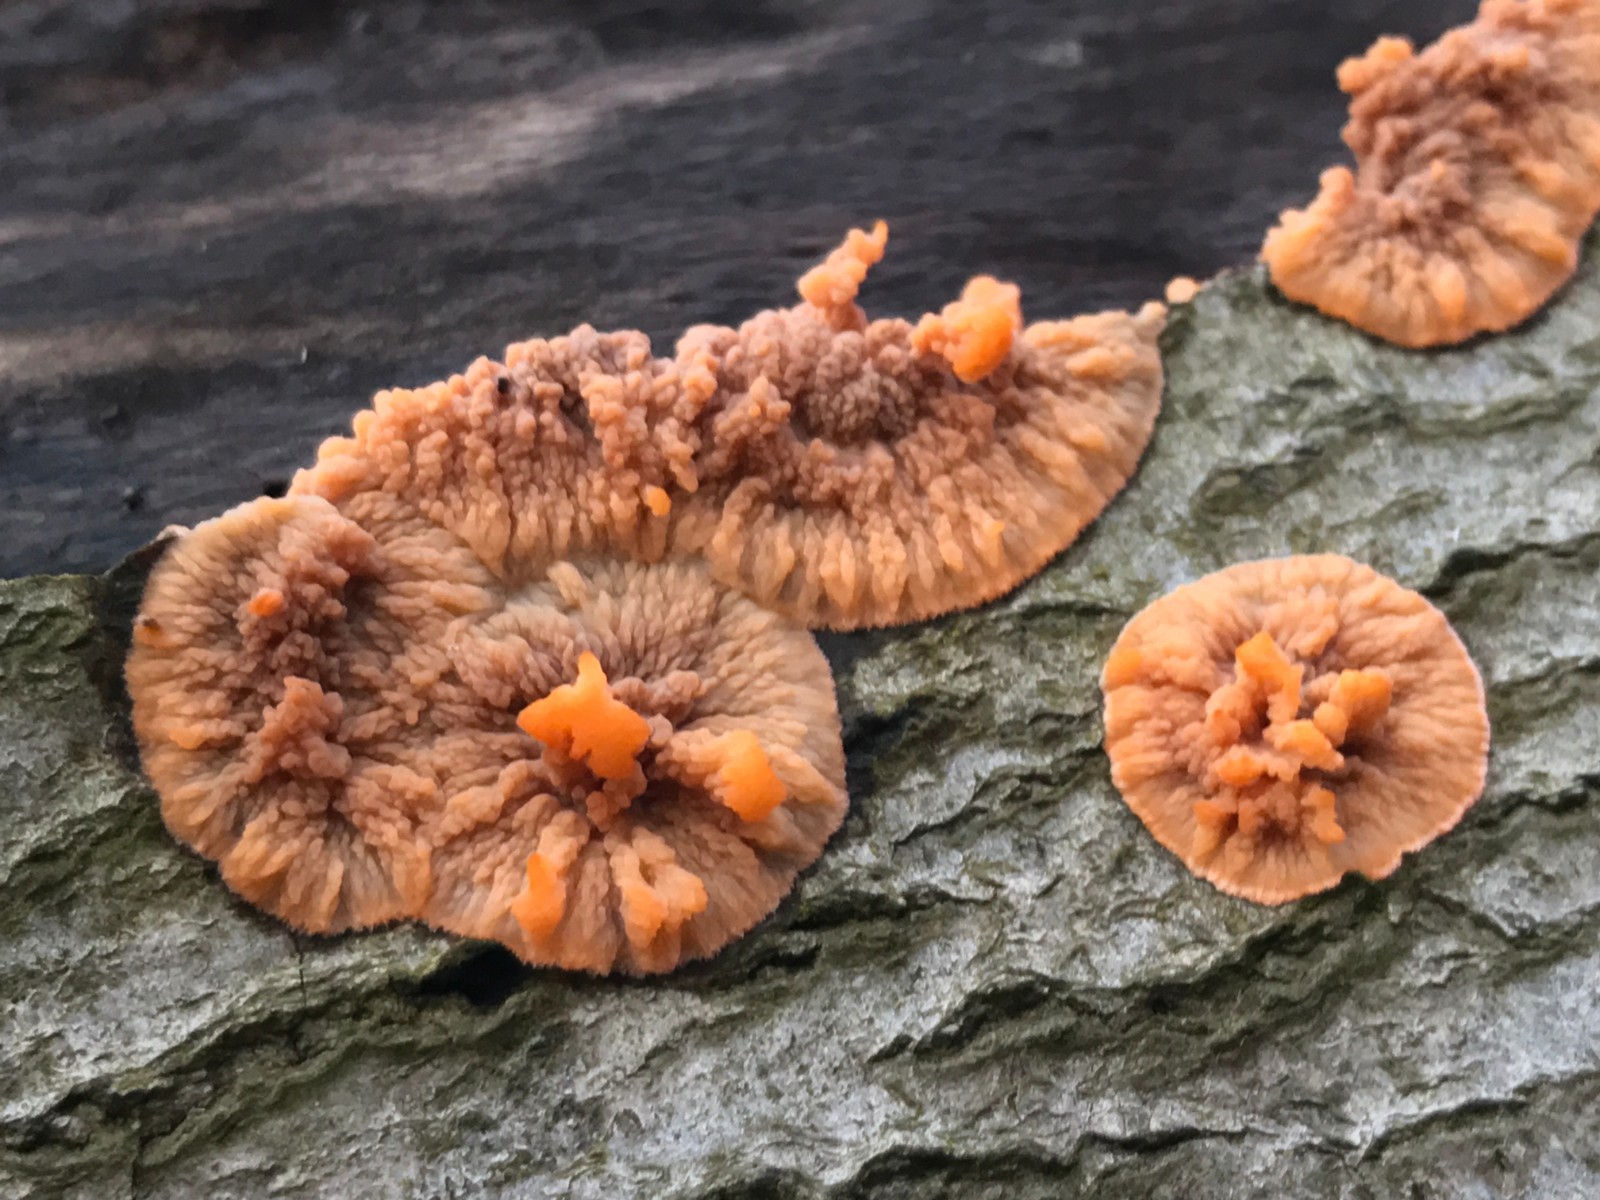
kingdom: Fungi
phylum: Basidiomycota
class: Agaricomycetes
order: Polyporales
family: Meruliaceae
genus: Phlebia
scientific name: Phlebia radiata
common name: stråle-åresvamp
